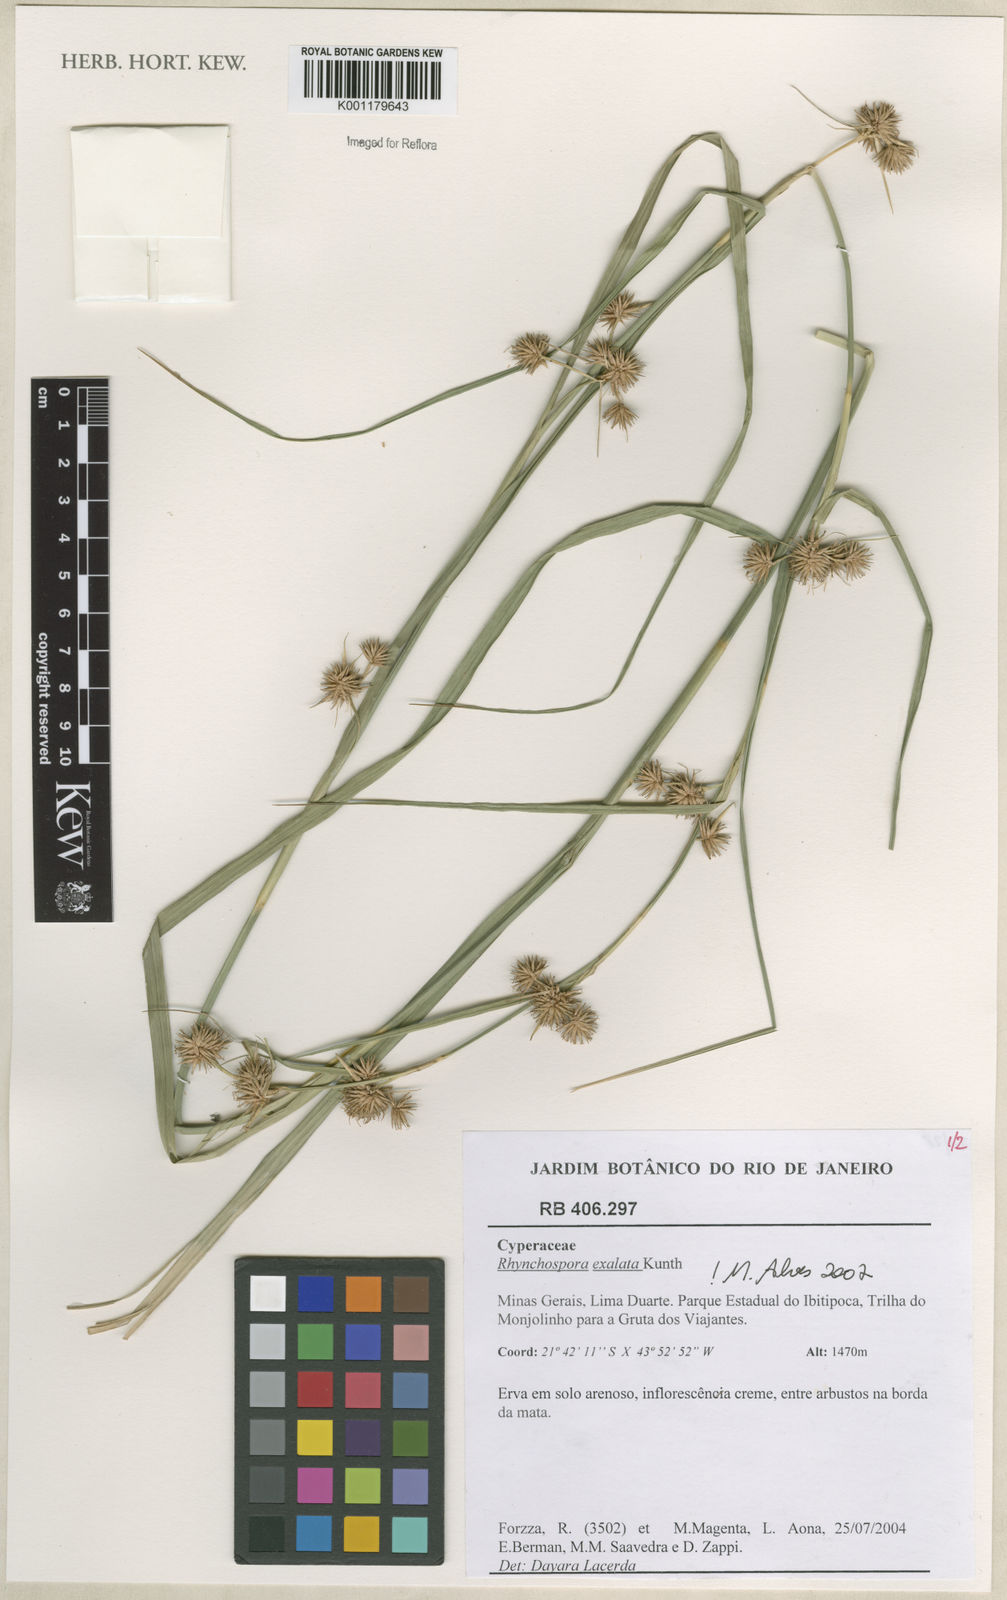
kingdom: Plantae
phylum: Tracheophyta
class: Liliopsida
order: Poales
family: Cyperaceae
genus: Rhynchospora
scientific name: Rhynchospora exaltata
